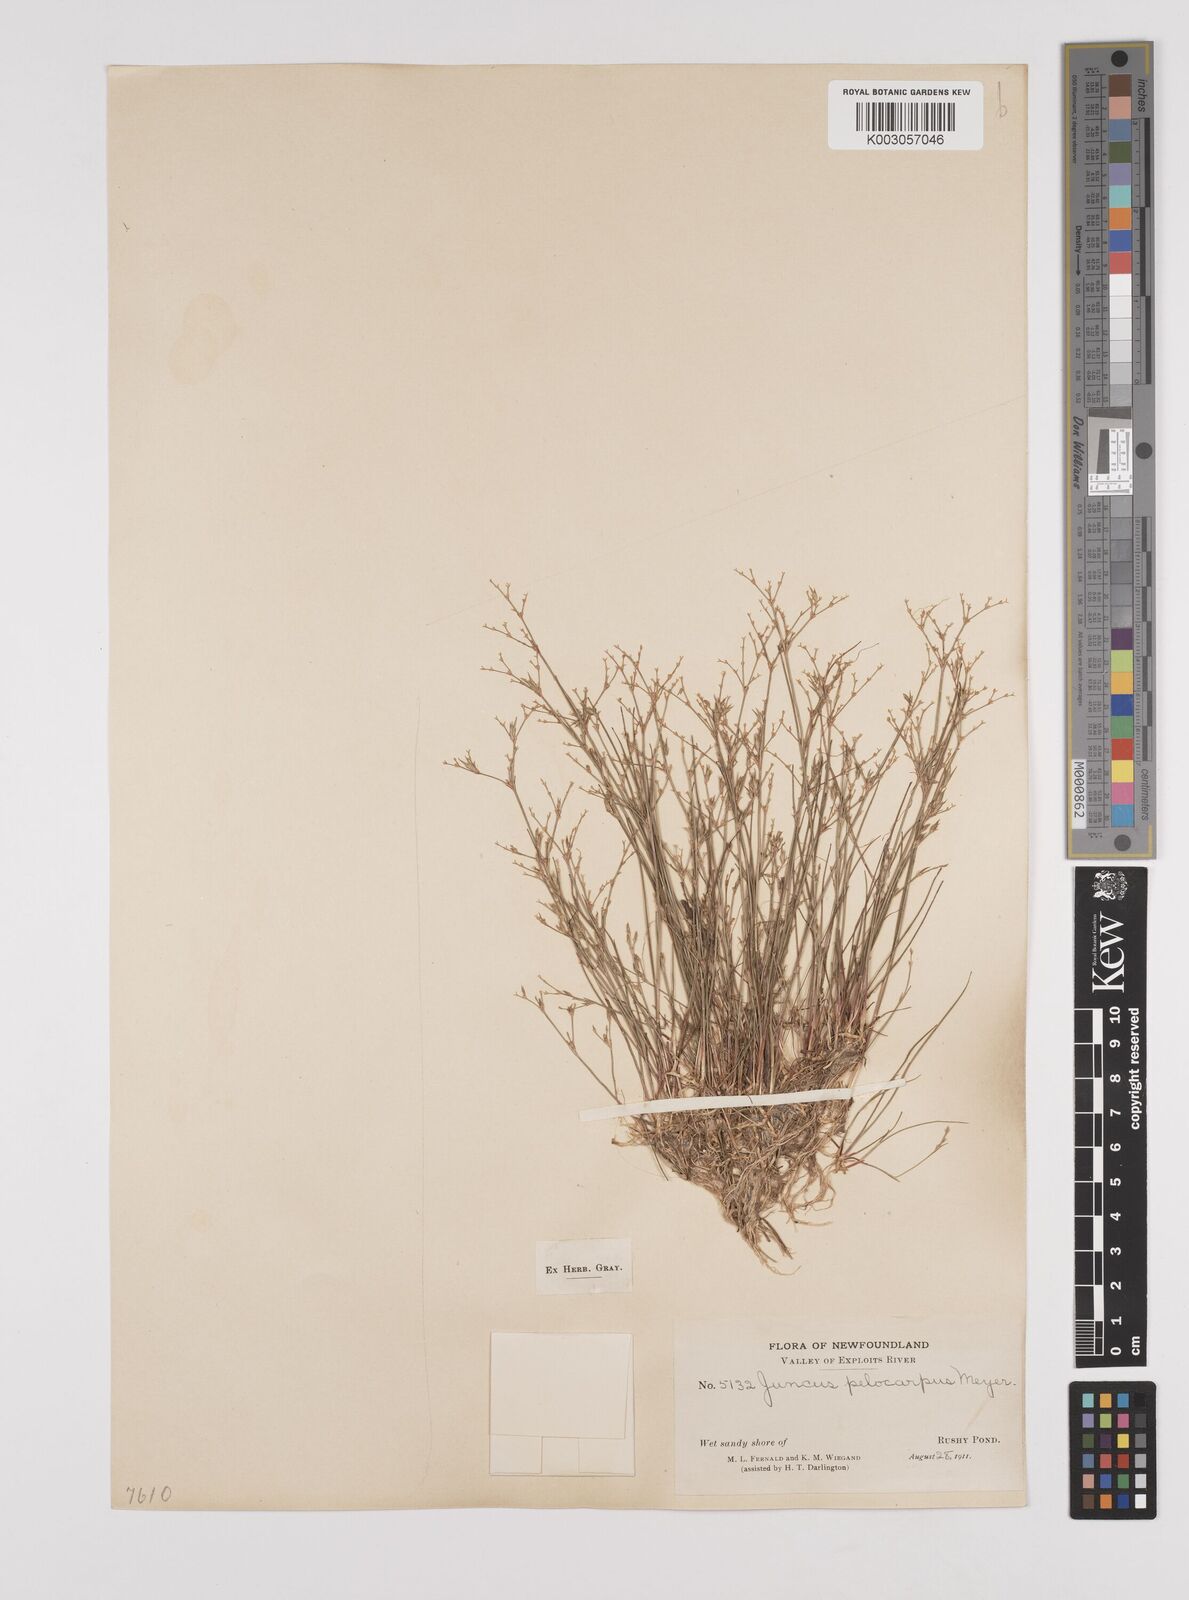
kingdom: Plantae
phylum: Tracheophyta
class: Liliopsida
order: Poales
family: Juncaceae
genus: Juncus
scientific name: Juncus pelocarpus
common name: Brown-fruited rush
